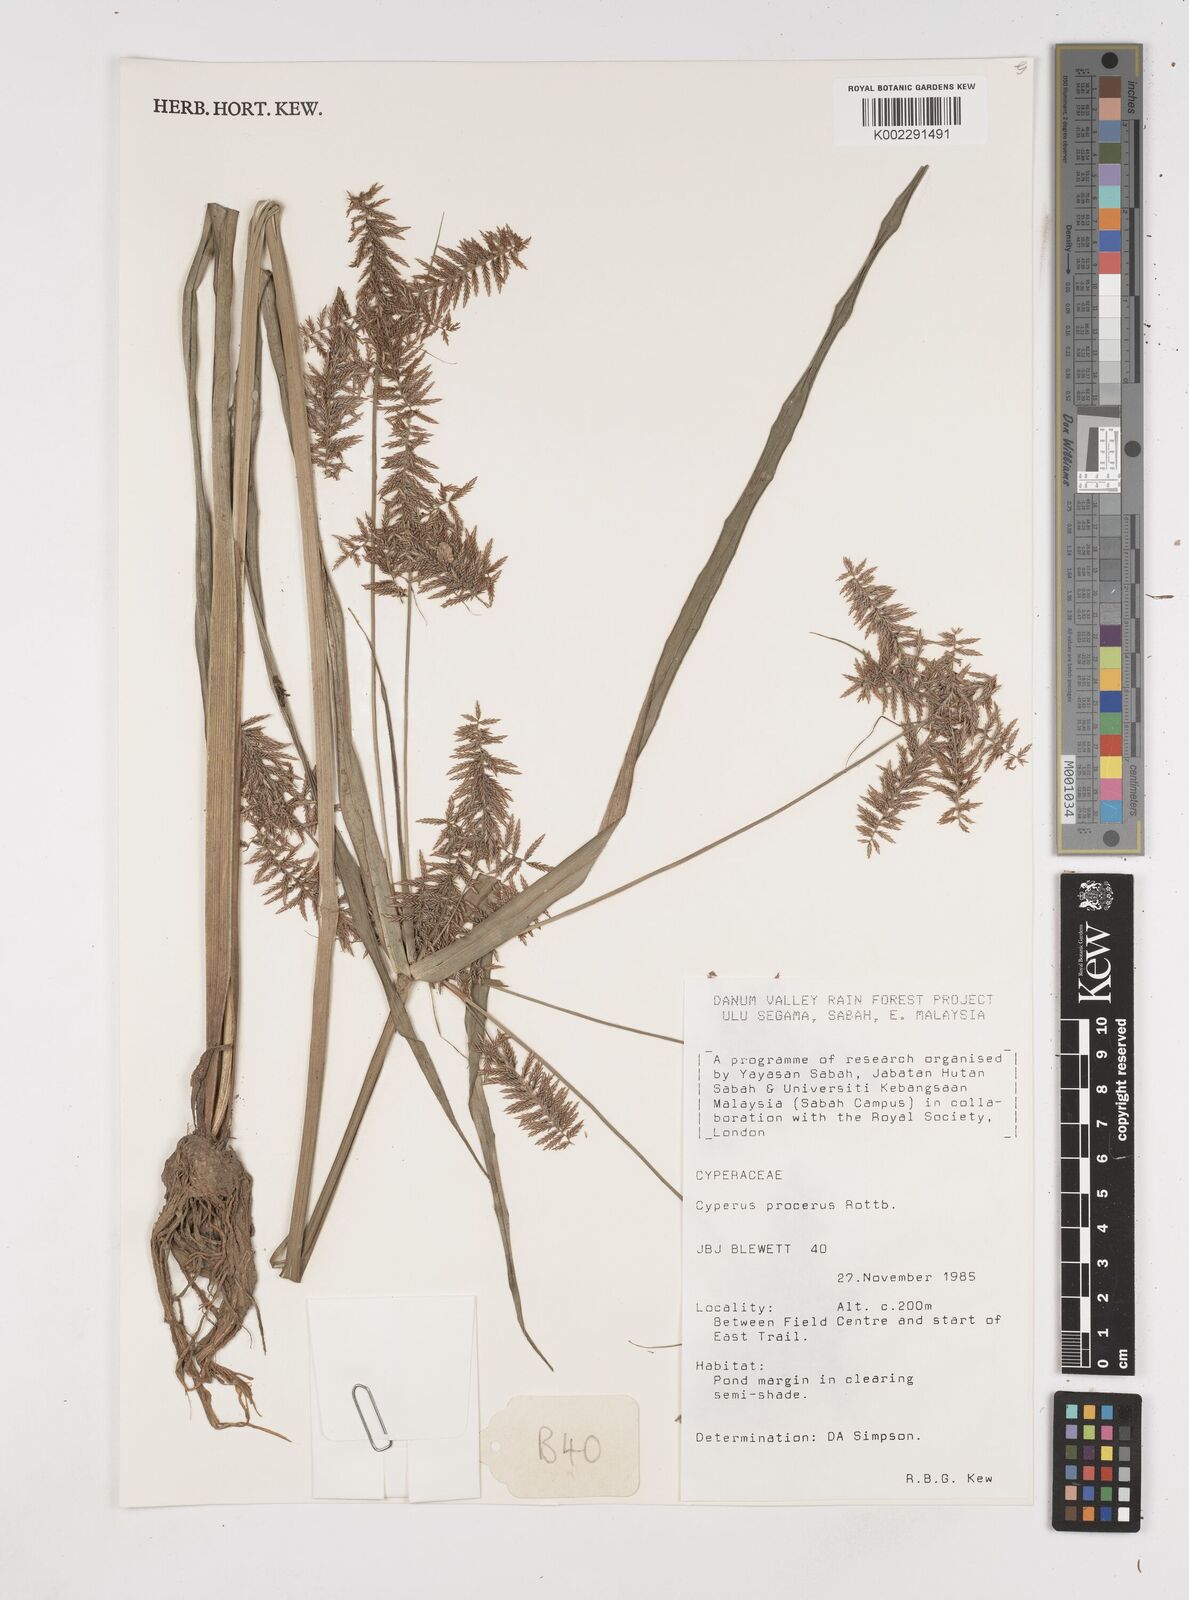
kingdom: Plantae
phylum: Tracheophyta
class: Liliopsida
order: Poales
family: Cyperaceae
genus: Cyperus
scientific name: Cyperus procerus
